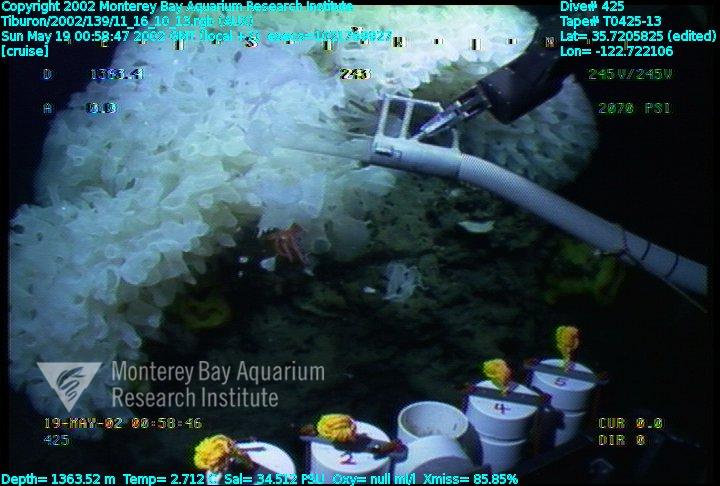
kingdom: Animalia
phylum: Porifera
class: Hexactinellida
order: Sceptrulophora
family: Farreidae
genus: Farrea
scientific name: Farrea occa
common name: Reversed glass sponge
